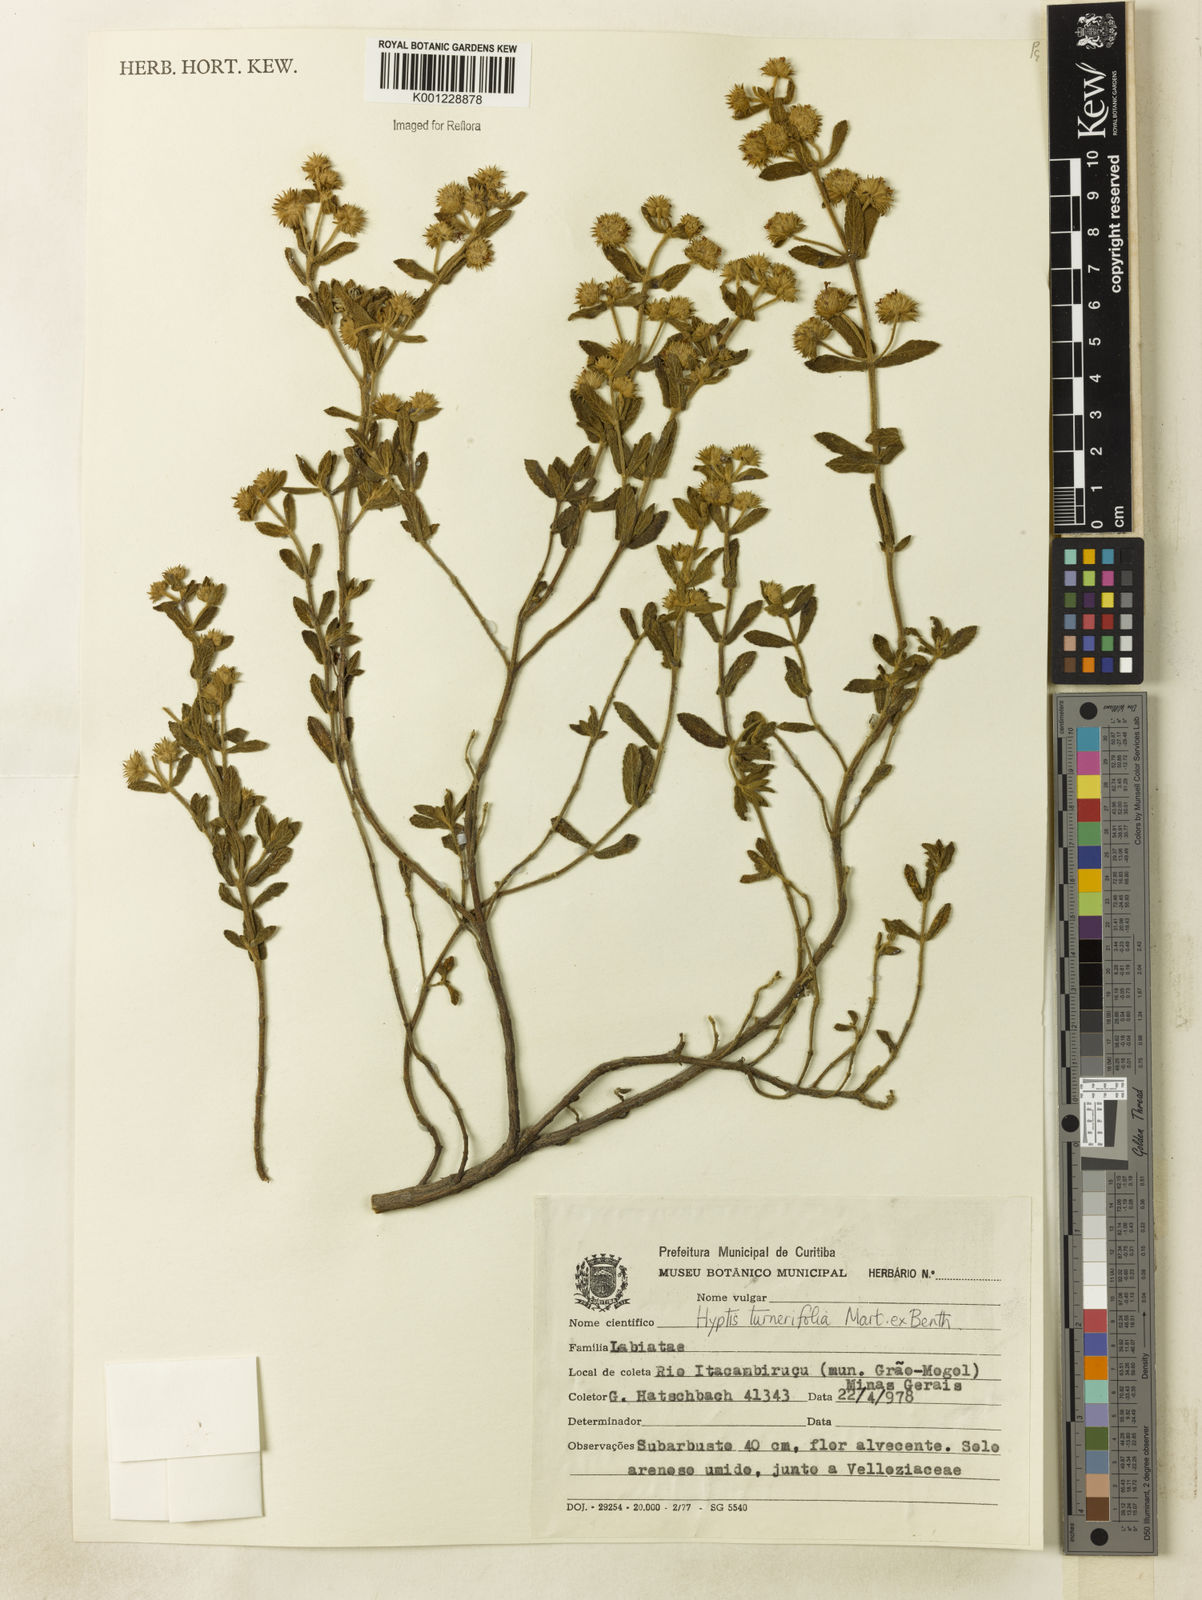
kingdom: Plantae
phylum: Tracheophyta
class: Magnoliopsida
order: Lamiales
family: Lamiaceae
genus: Hyptis
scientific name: Hyptis velutina
